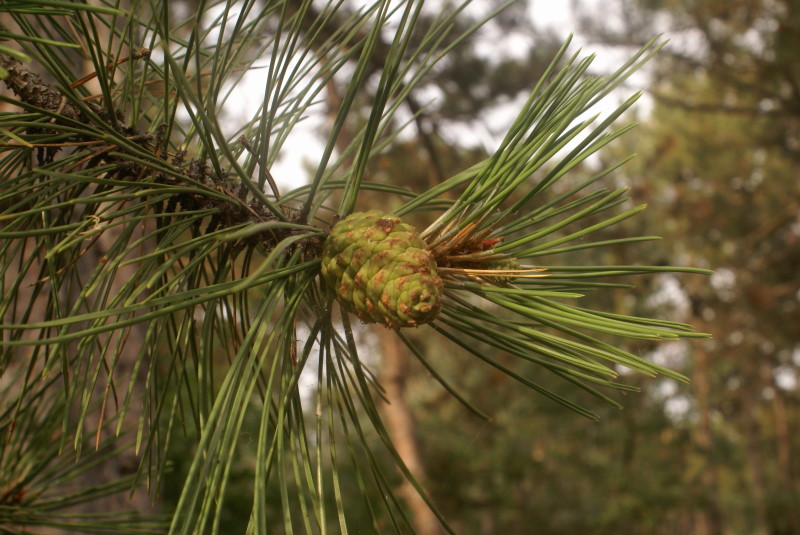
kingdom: Plantae
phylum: Tracheophyta
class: Pinopsida
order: Pinales
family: Pinaceae
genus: Pinus
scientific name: Pinus
